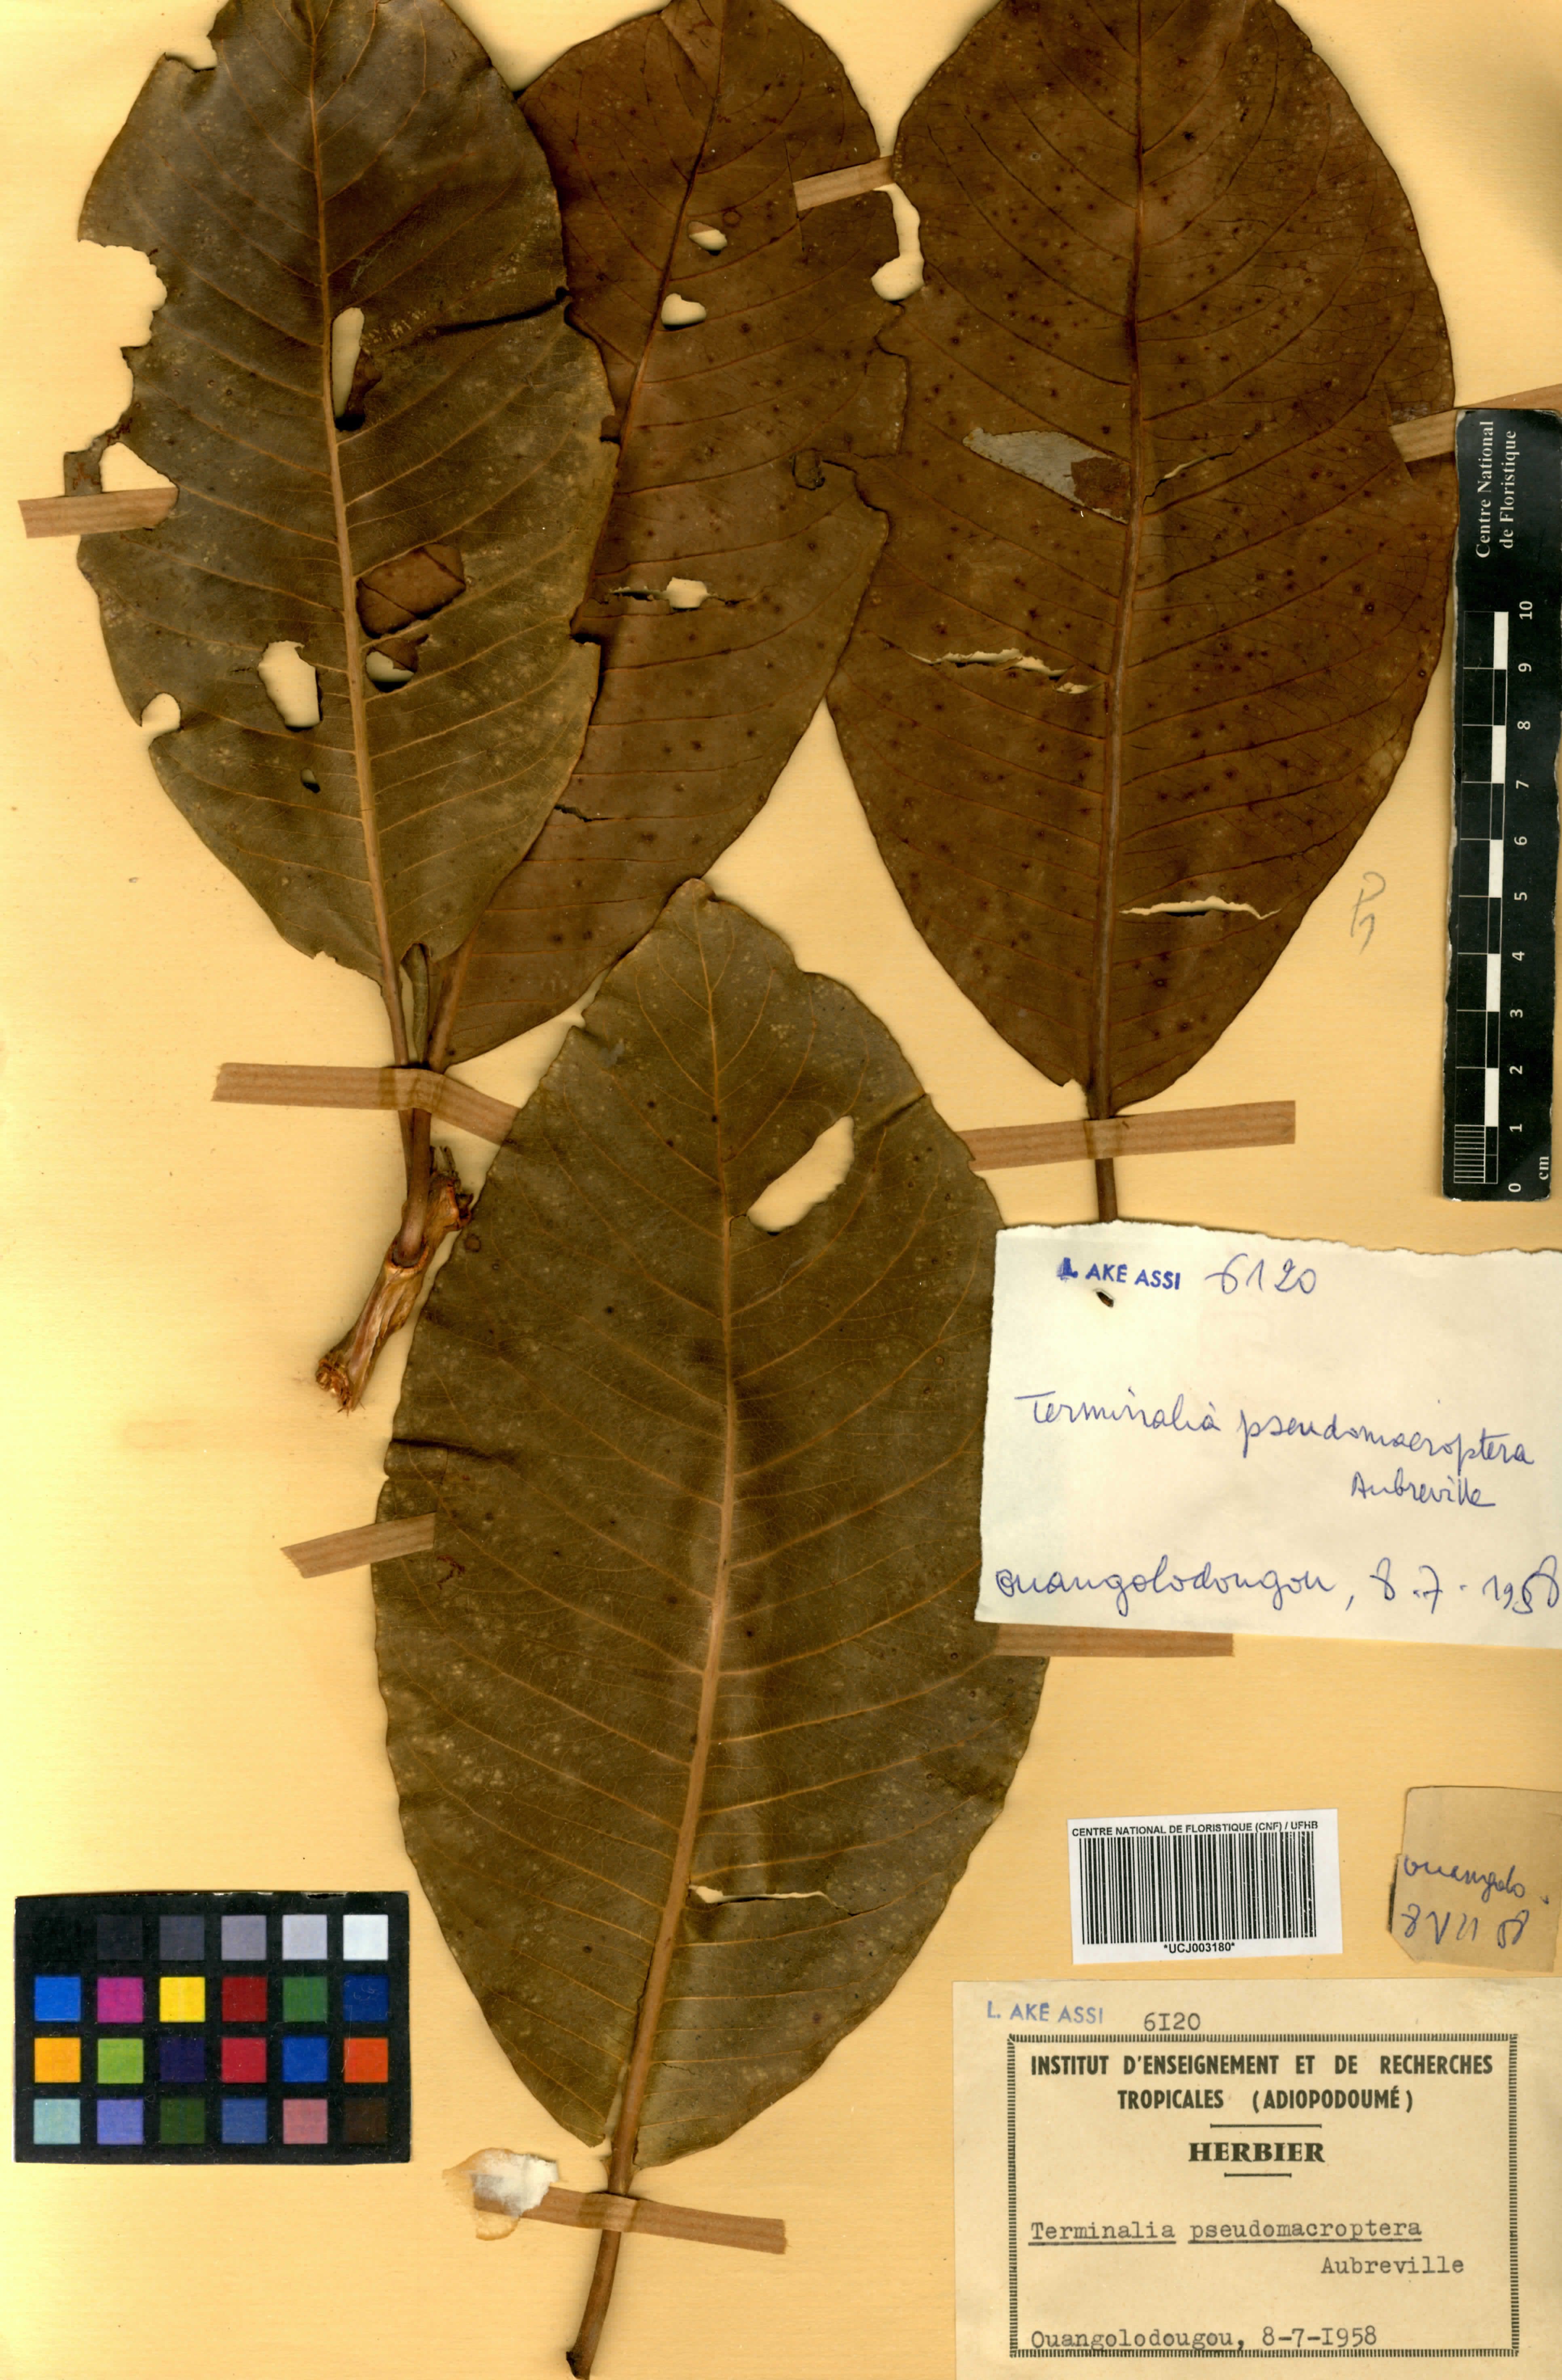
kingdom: Plantae
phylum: Tracheophyta
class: Magnoliopsida
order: Myrtales
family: Combretaceae
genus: Terminalia
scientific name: Terminalia
